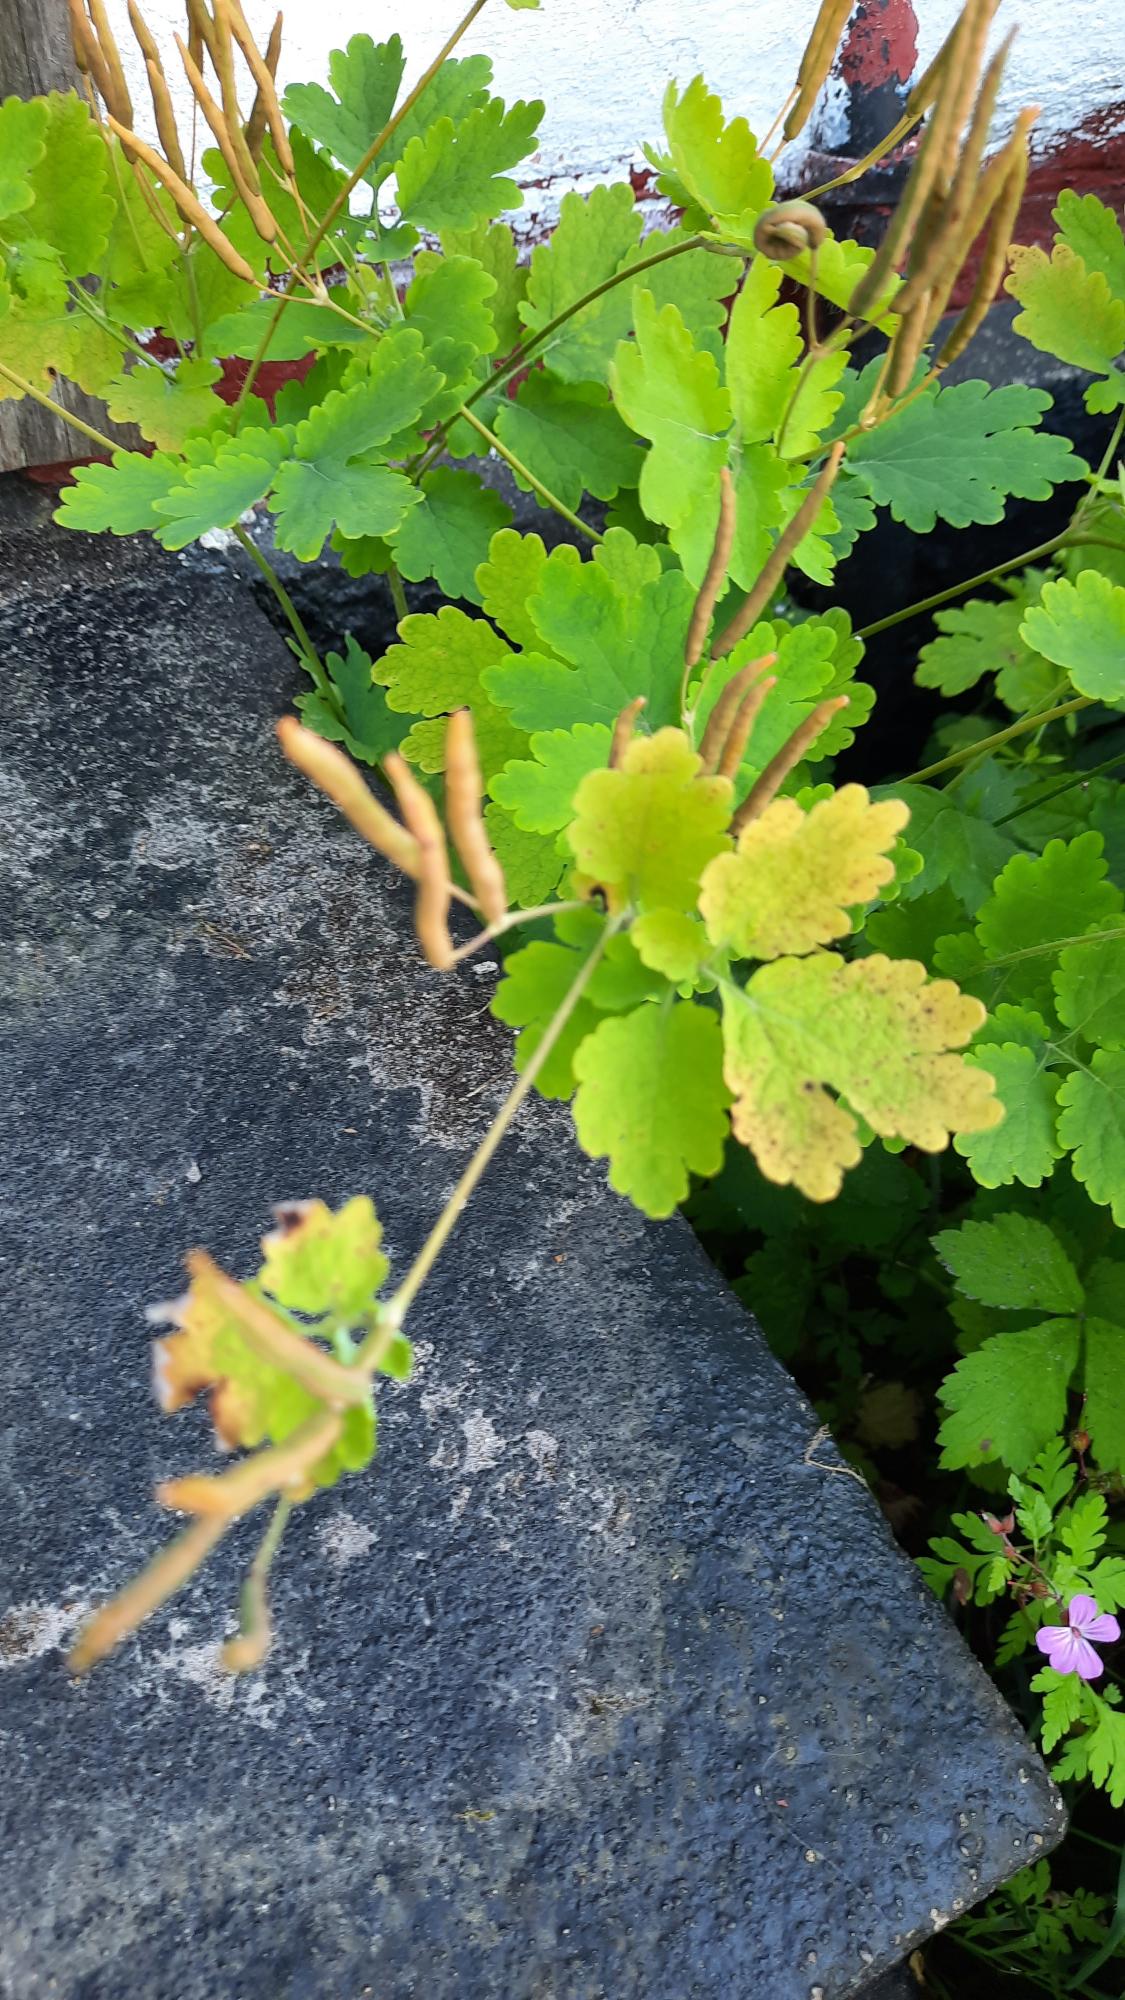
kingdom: Plantae
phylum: Tracheophyta
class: Magnoliopsida
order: Ranunculales
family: Papaveraceae
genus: Chelidonium
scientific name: Chelidonium majus
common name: Svaleurt
